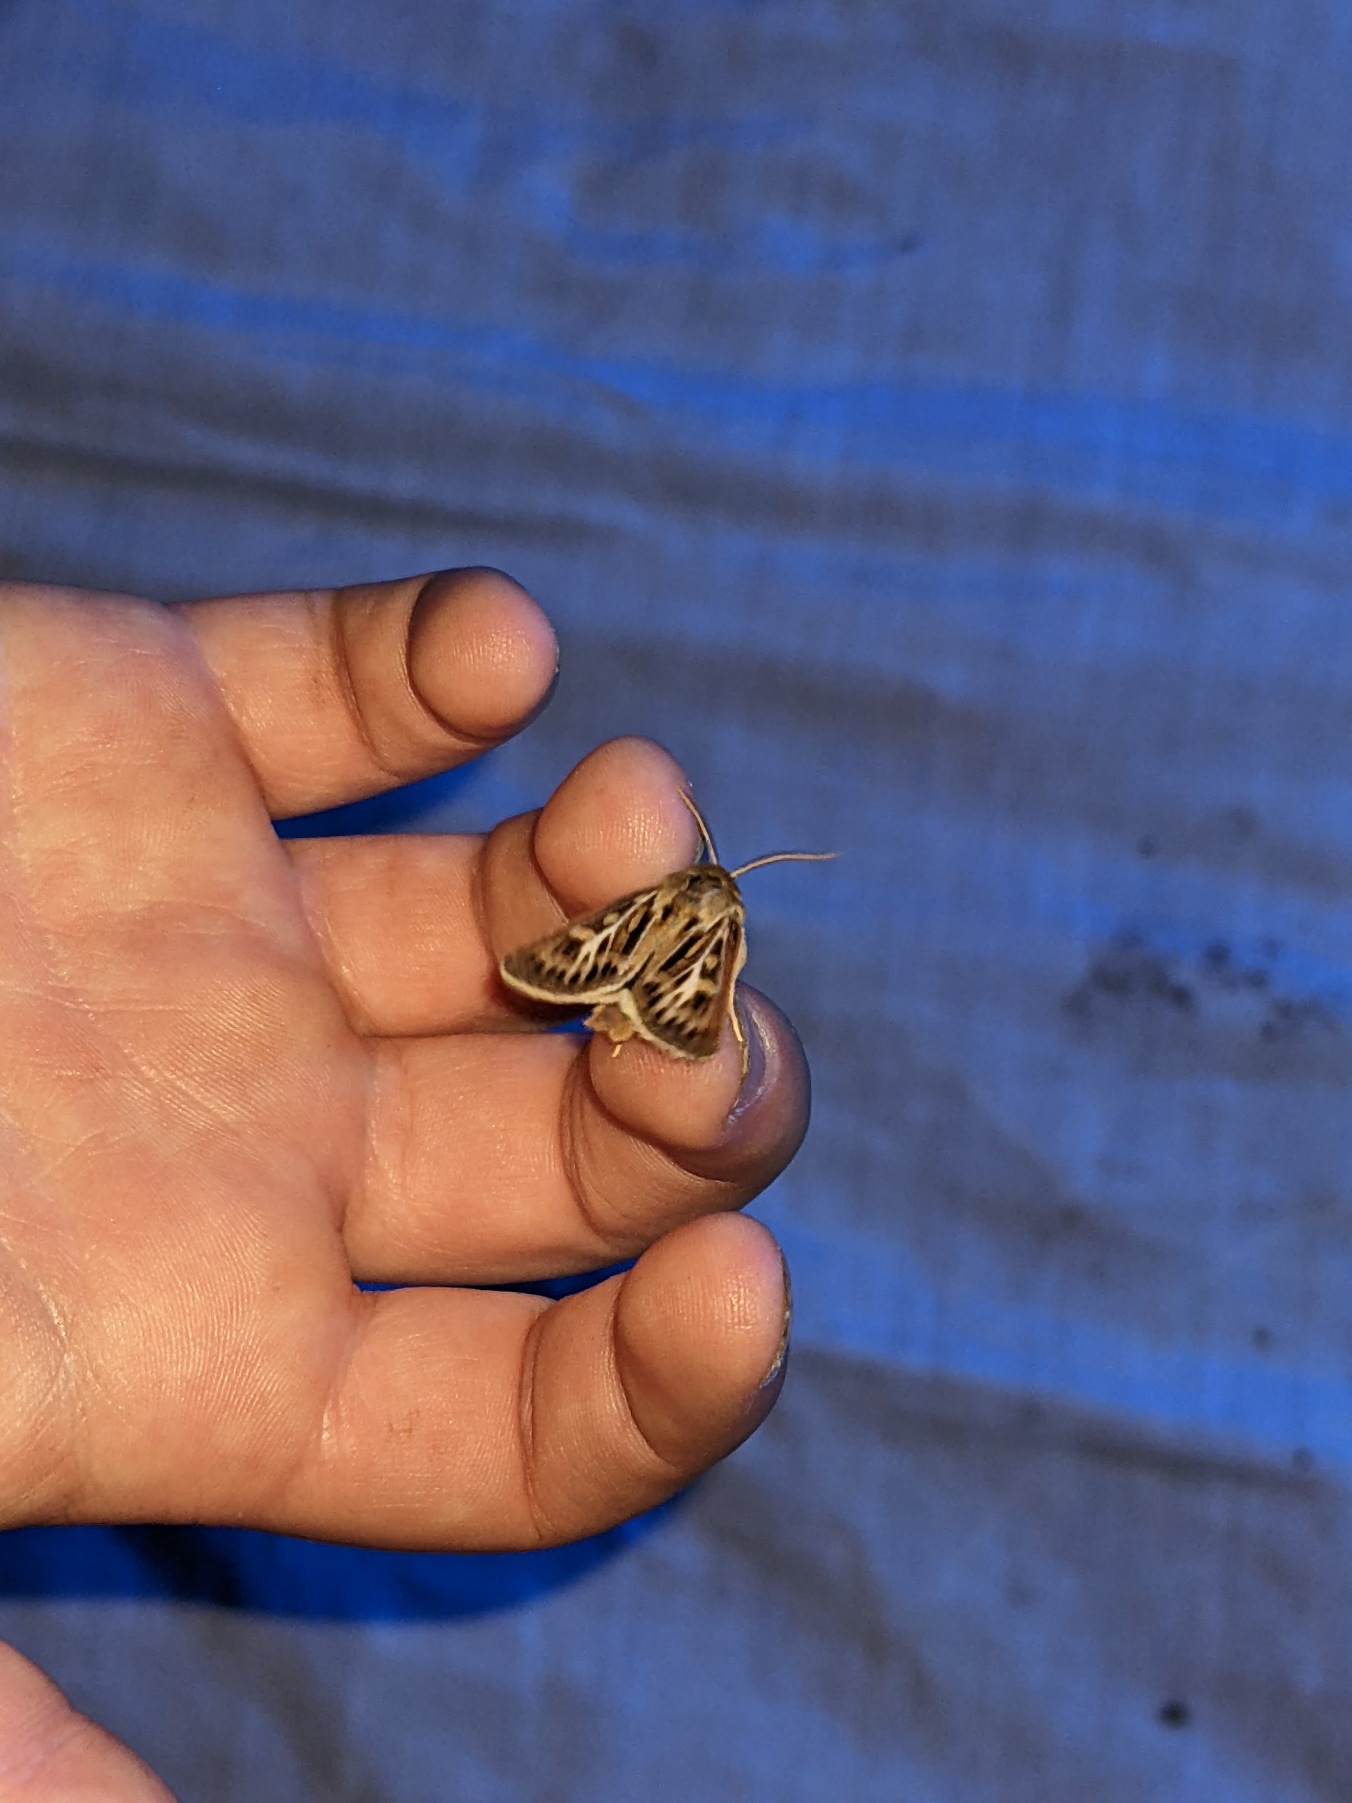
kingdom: Animalia
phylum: Arthropoda
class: Insecta
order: Lepidoptera
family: Noctuidae
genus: Cerapteryx
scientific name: Cerapteryx graminis
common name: Mosebunkeugle
